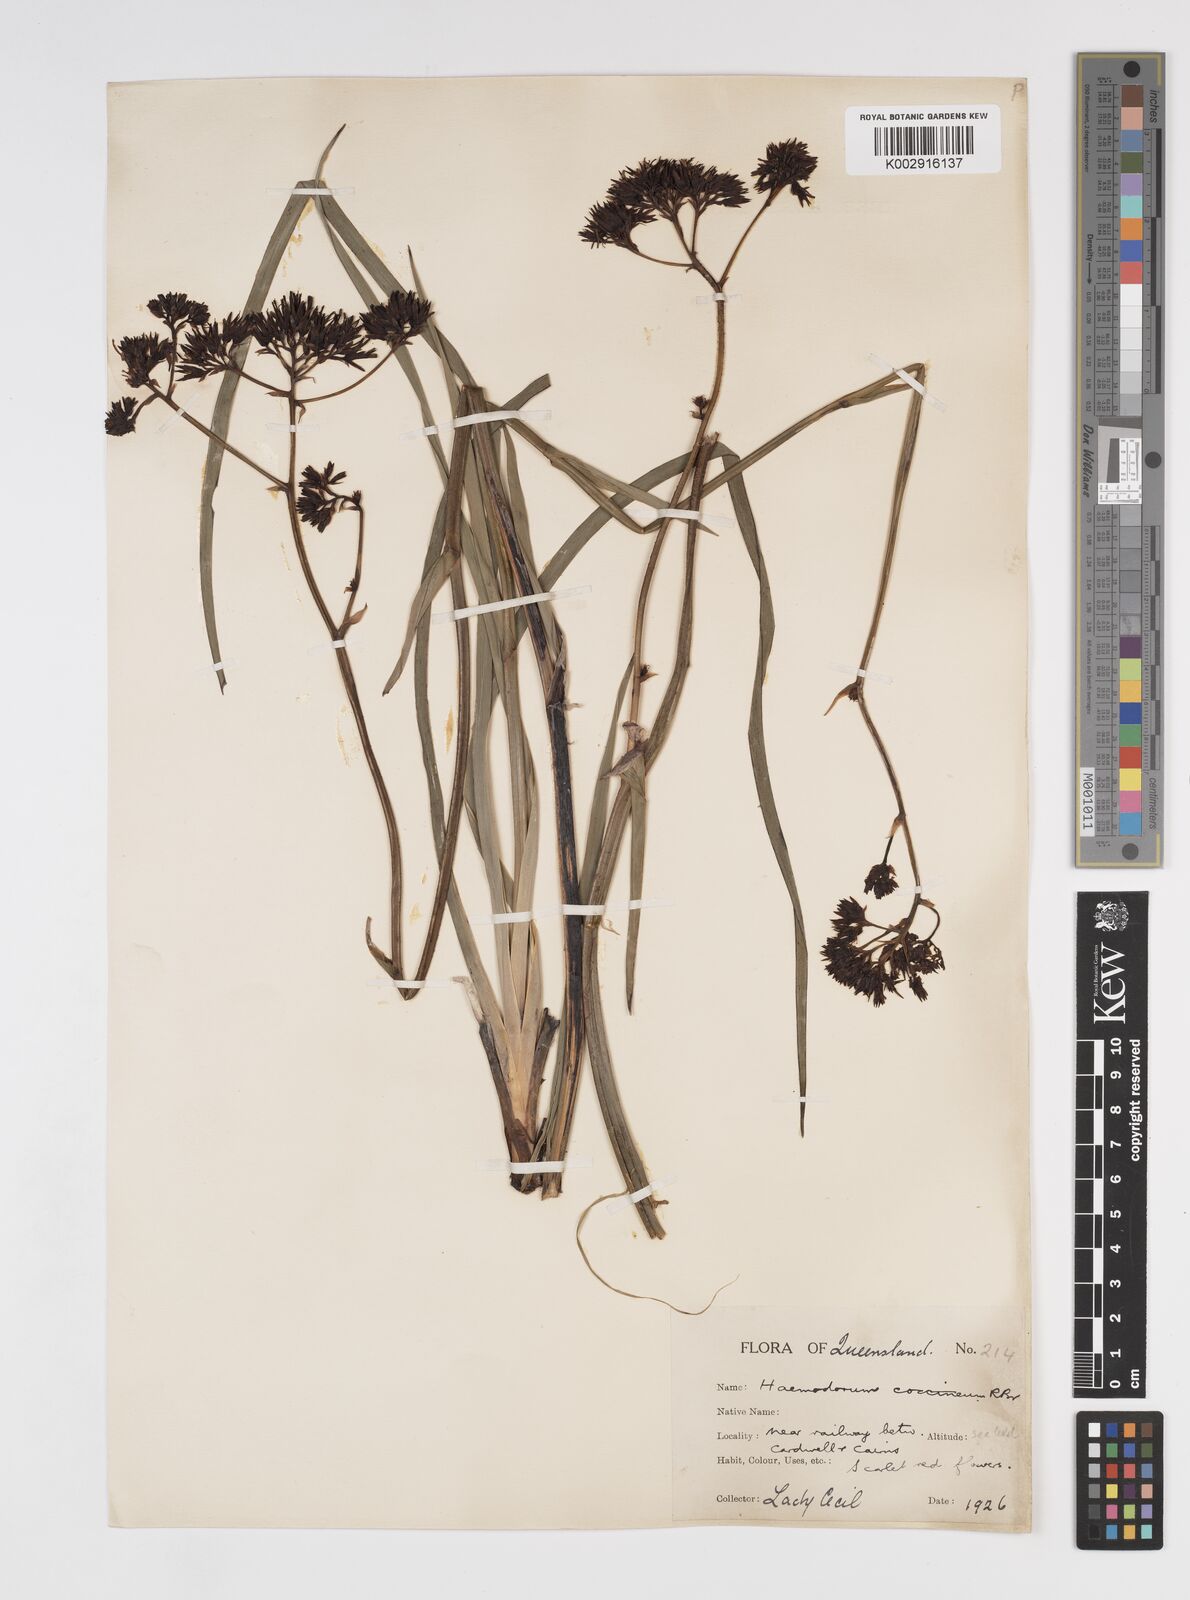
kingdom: Plantae
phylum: Tracheophyta
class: Liliopsida
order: Commelinales
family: Haemodoraceae
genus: Haemodorum
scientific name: Haemodorum coccineum
